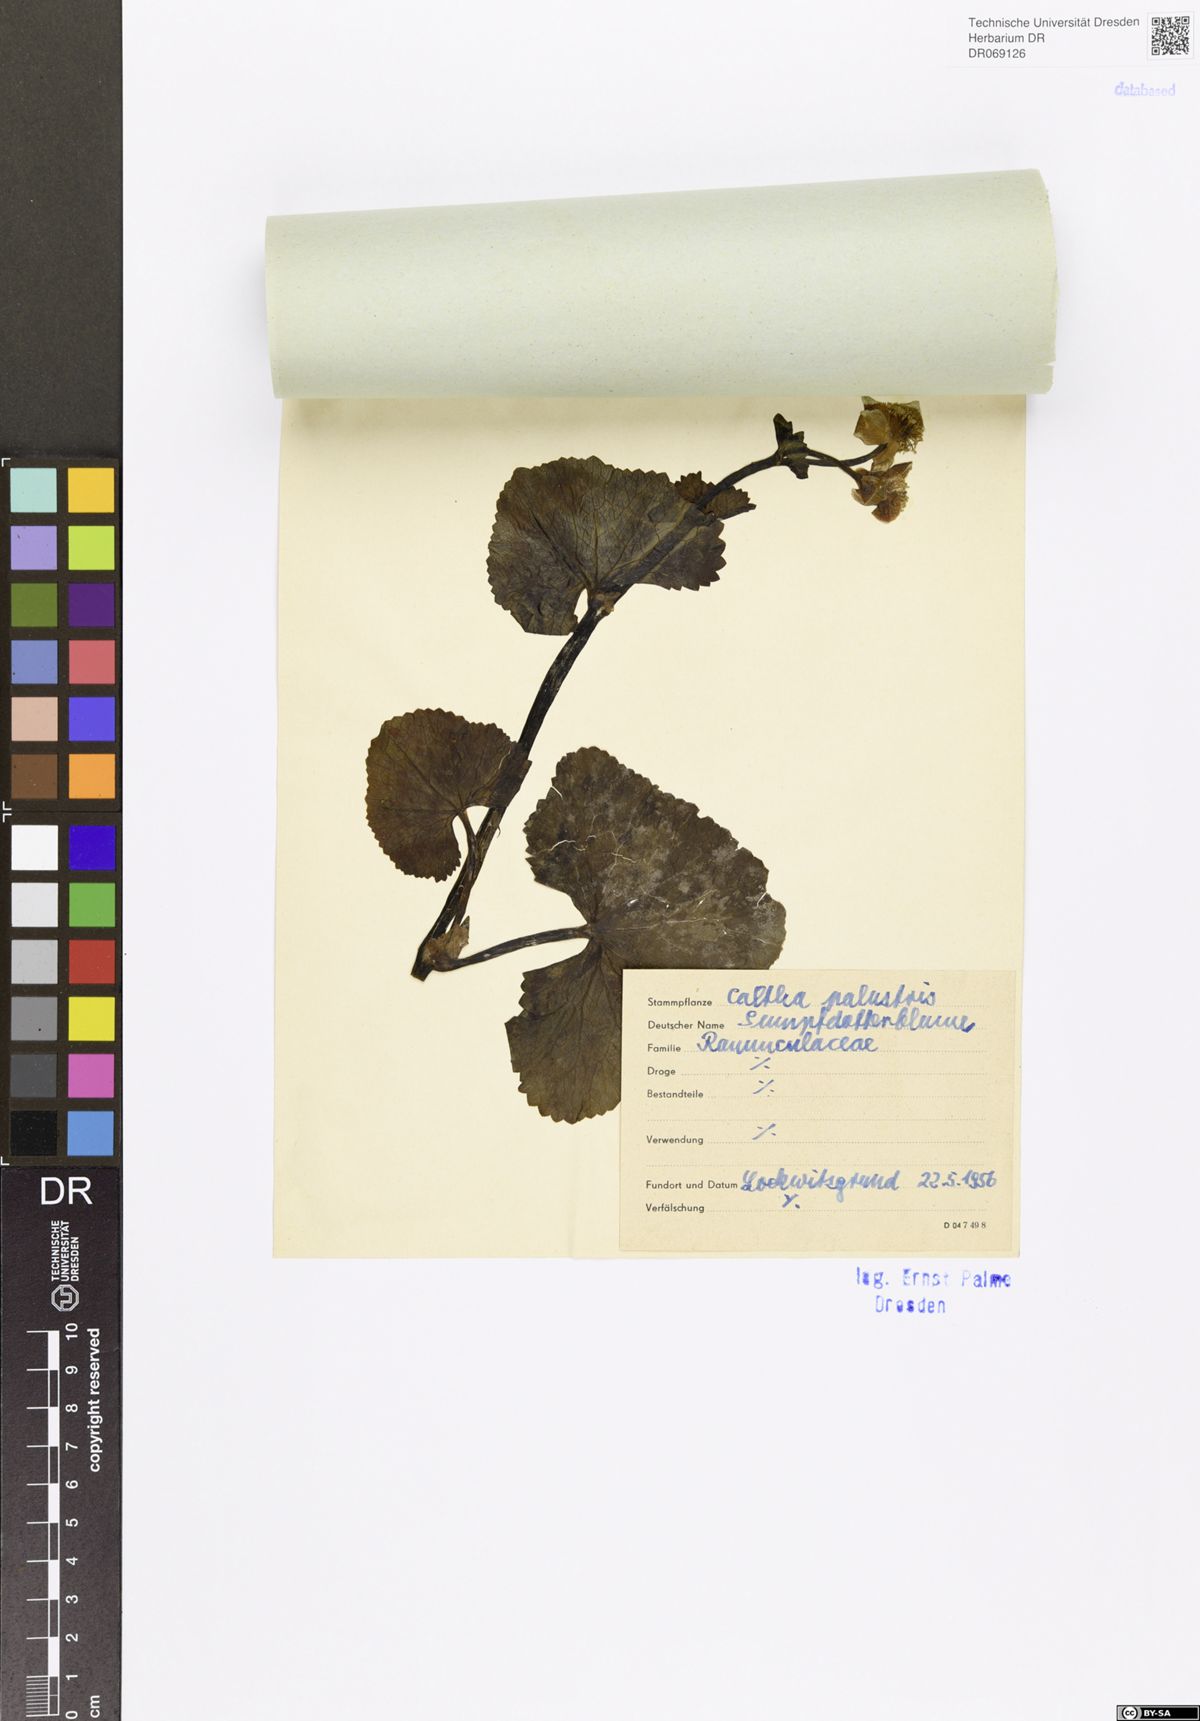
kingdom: Plantae
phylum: Tracheophyta
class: Magnoliopsida
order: Ranunculales
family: Ranunculaceae
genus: Caltha
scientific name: Caltha palustris
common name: Marsh marigold
